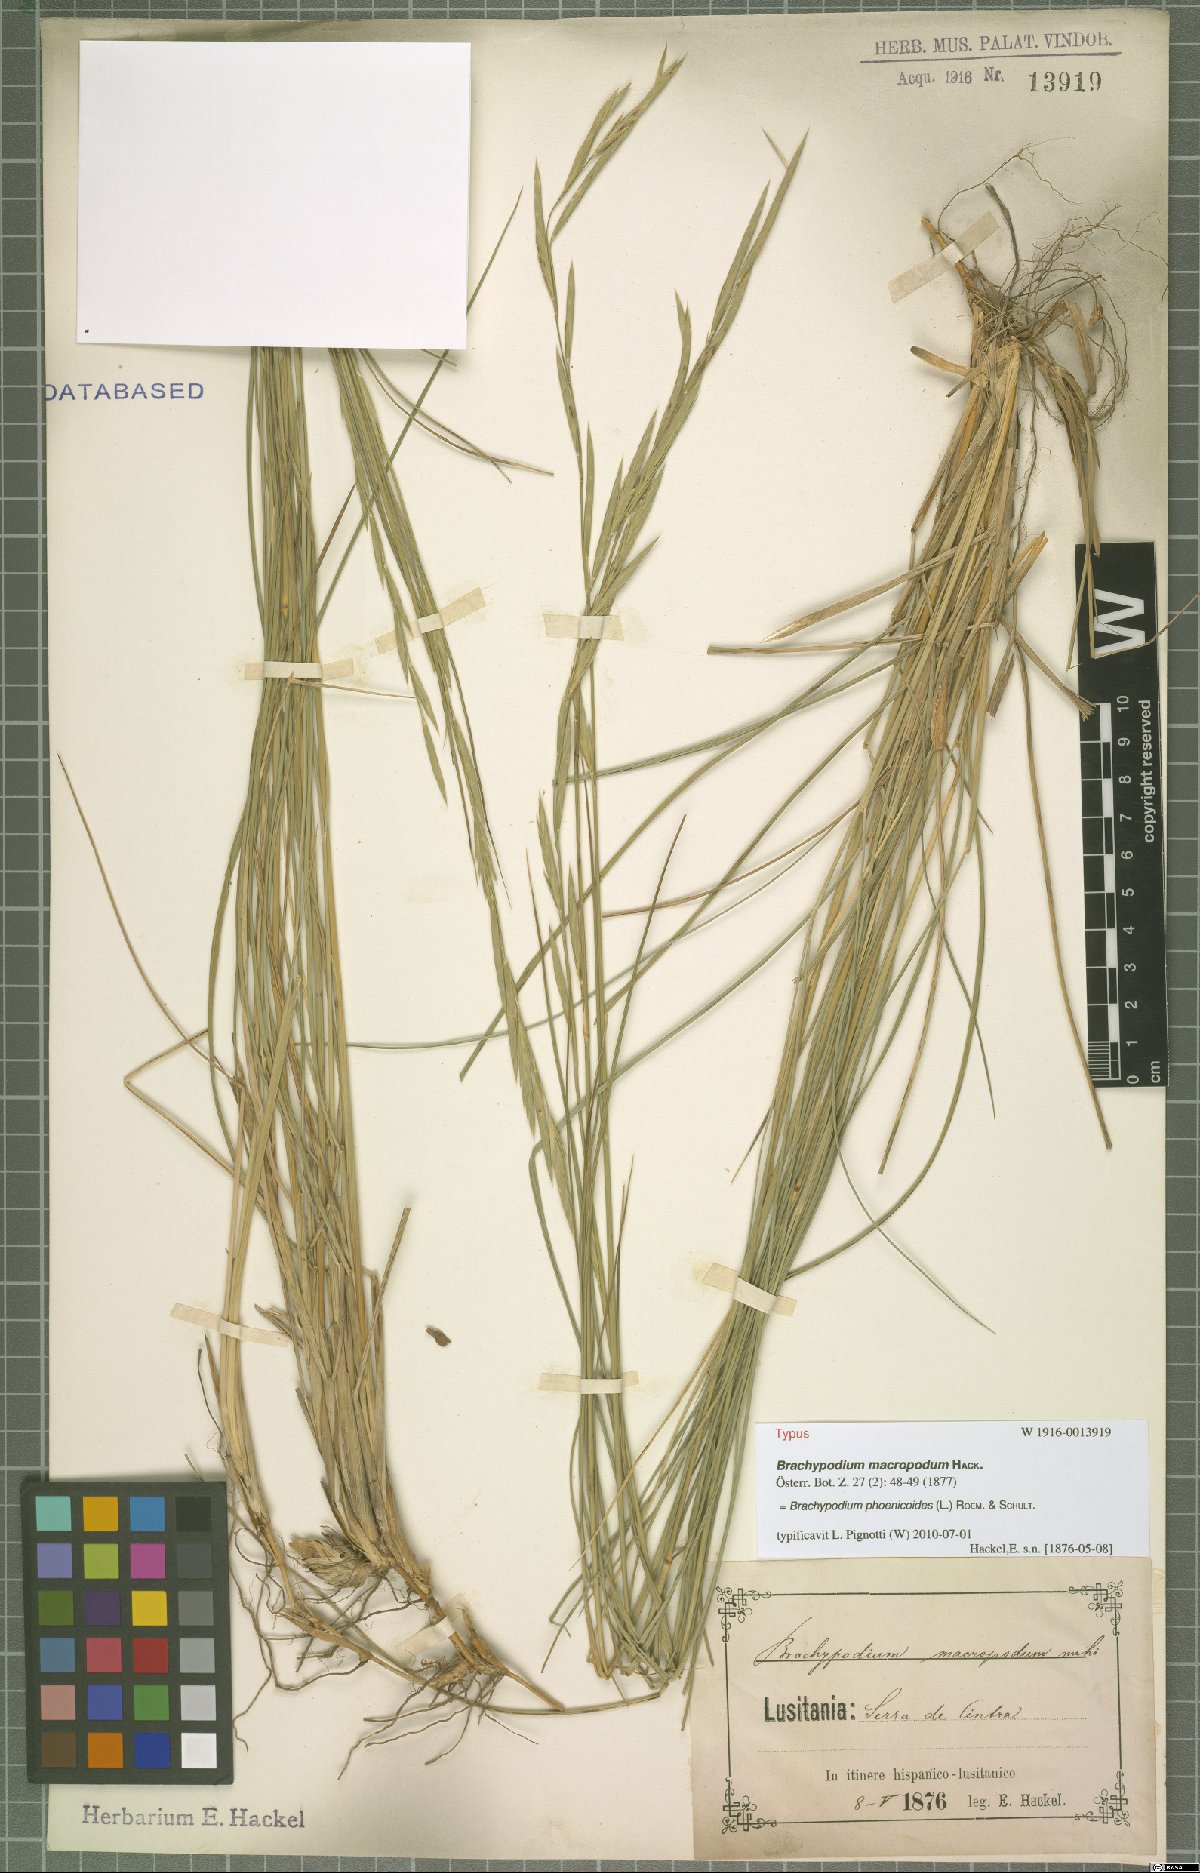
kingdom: Plantae
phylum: Tracheophyta
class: Liliopsida
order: Poales
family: Poaceae
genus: Brachypodium
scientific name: Brachypodium phoenicoides
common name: Thinleaf false brome
